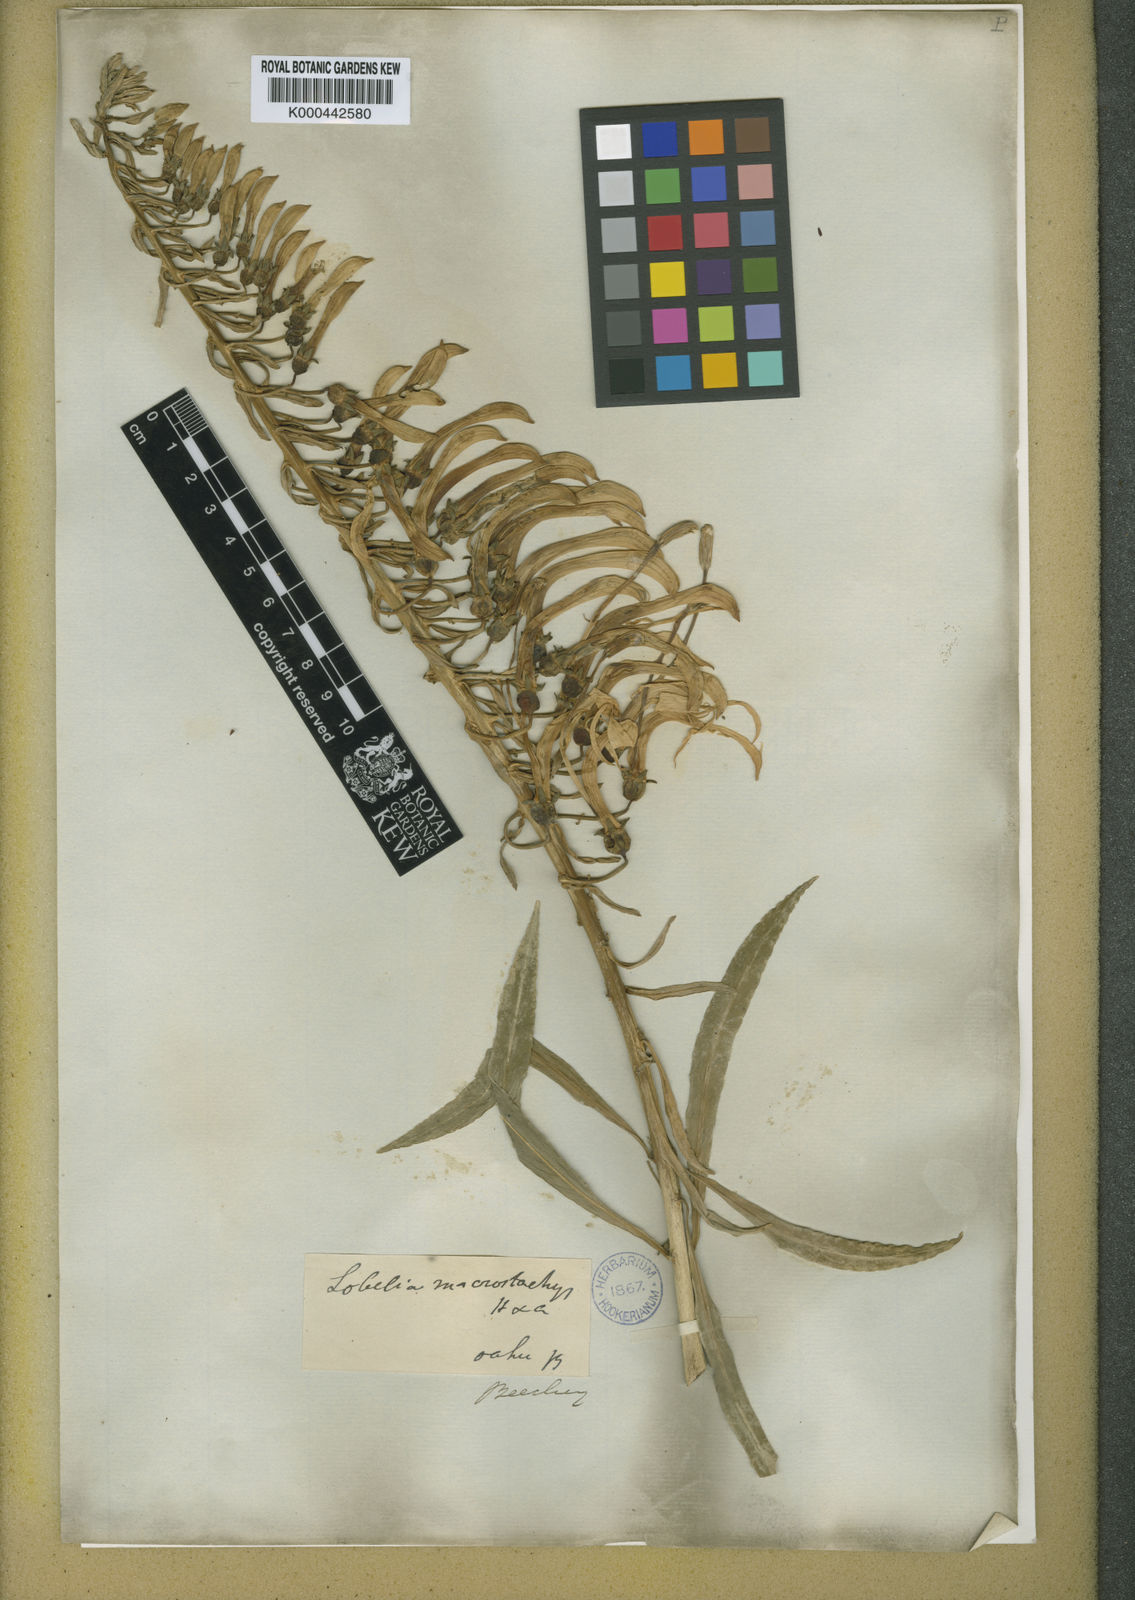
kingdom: Plantae
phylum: Tracheophyta
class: Magnoliopsida
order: Asterales
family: Campanulaceae
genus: Trematolobelia
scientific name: Trematolobelia macrostachys
